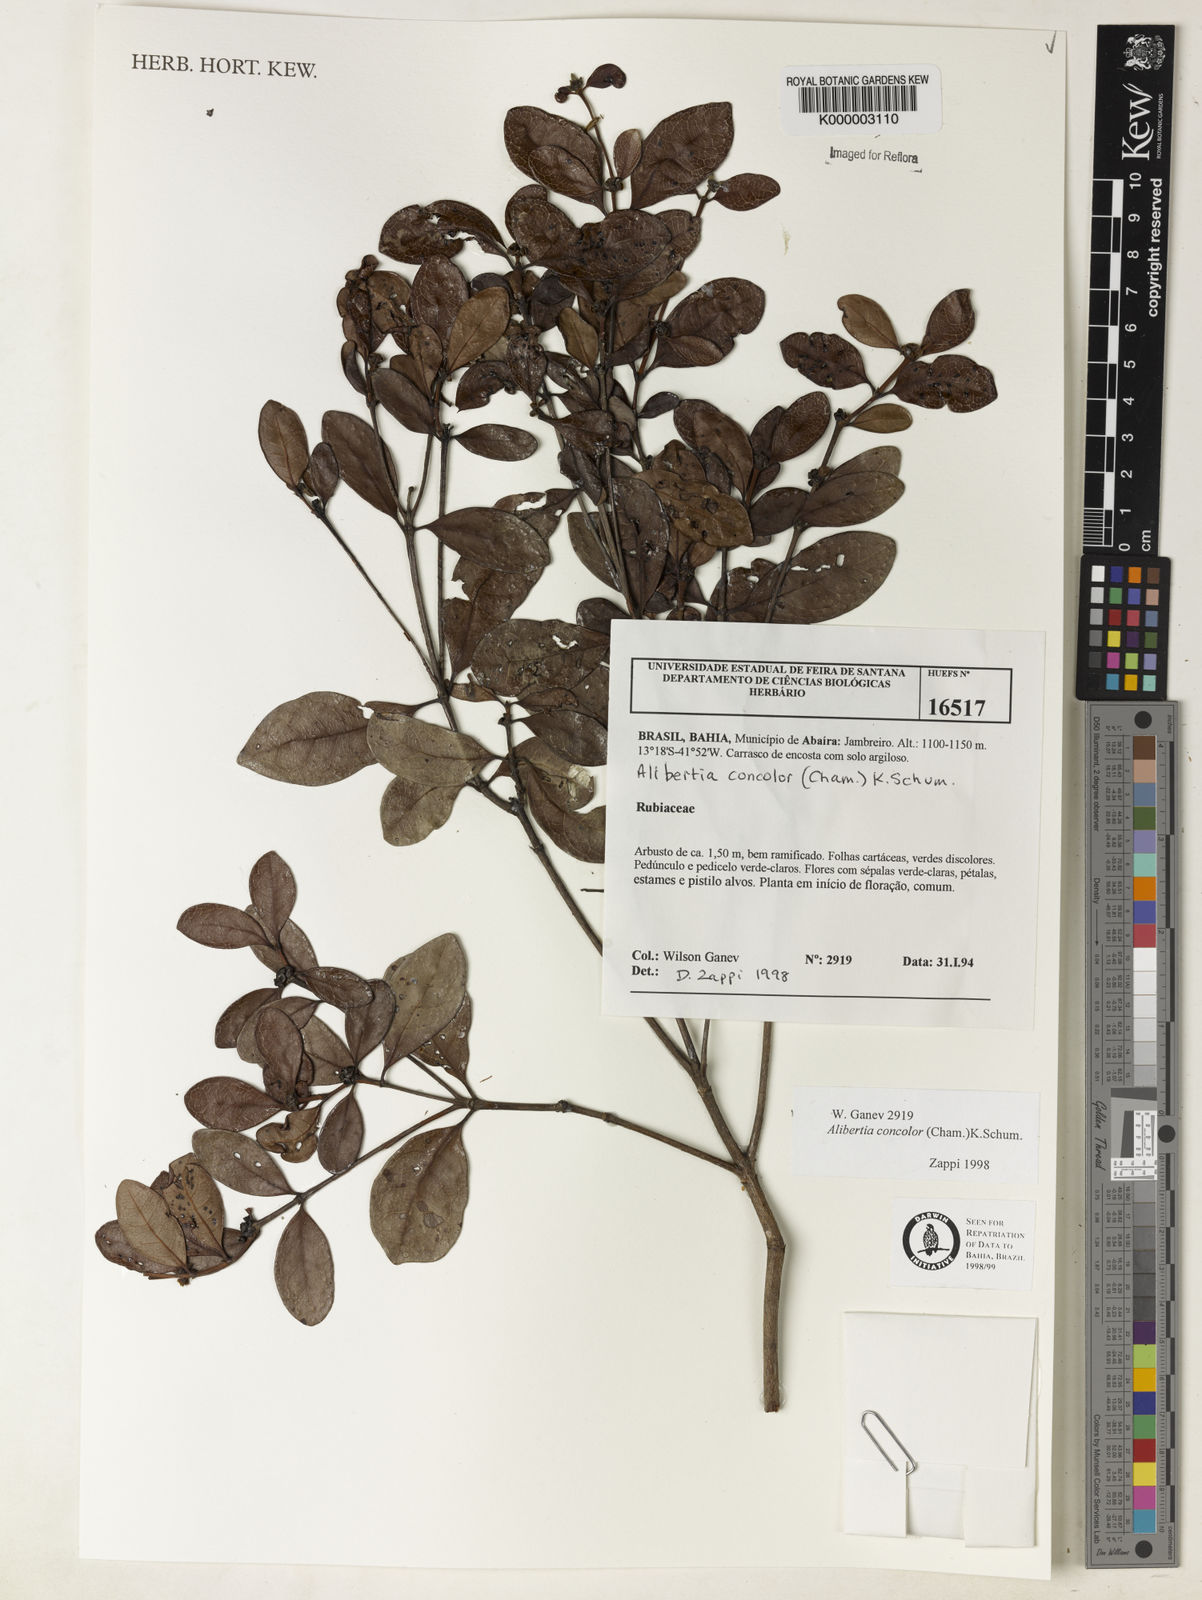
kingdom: Plantae
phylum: Tracheophyta
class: Magnoliopsida
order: Gentianales
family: Rubiaceae
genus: Cordiera
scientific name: Cordiera concolor
